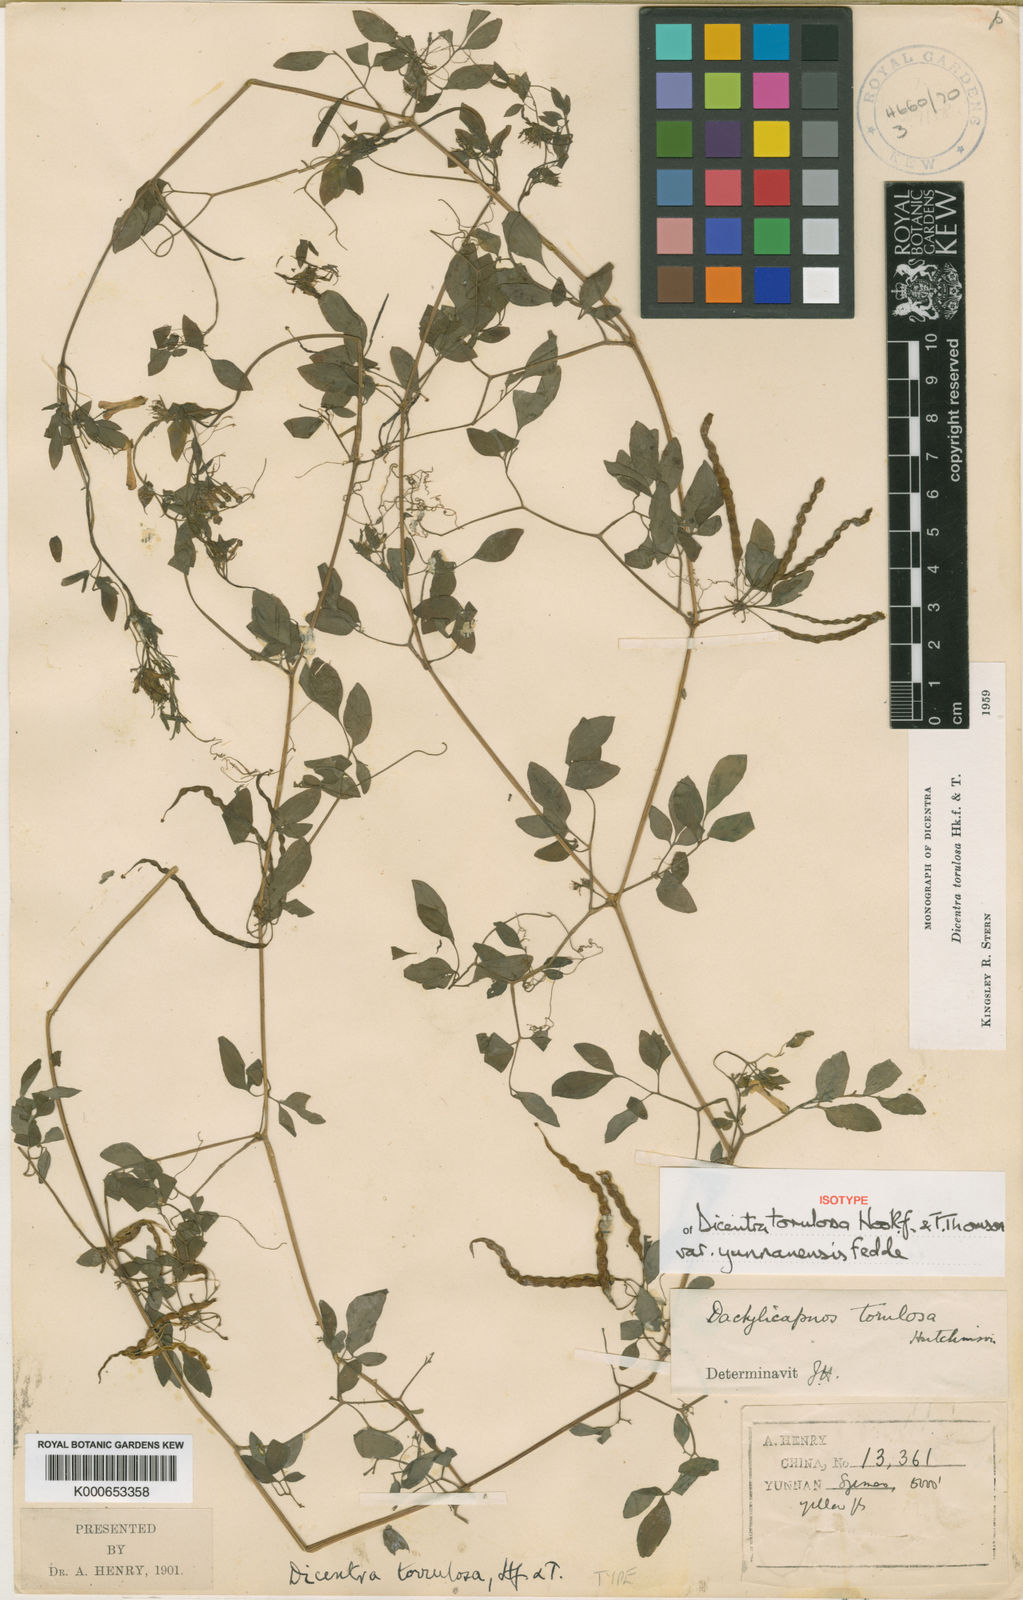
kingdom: Plantae
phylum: Tracheophyta
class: Magnoliopsida
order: Ranunculales
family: Papaveraceae
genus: Dactylicapnos
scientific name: Dactylicapnos torulosa
